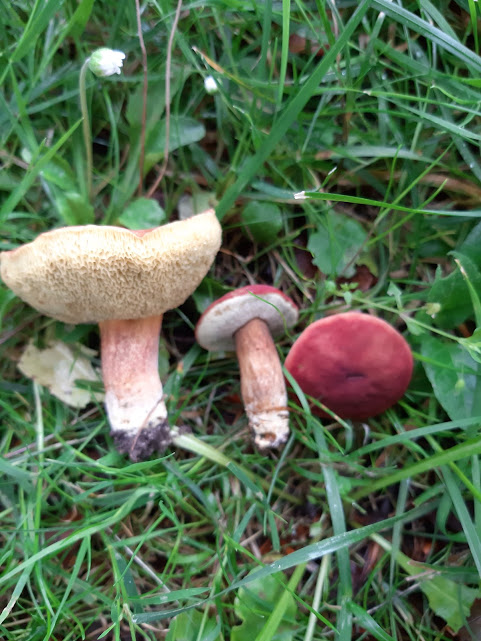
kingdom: Fungi
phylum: Basidiomycota
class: Agaricomycetes
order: Boletales
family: Boletaceae
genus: Hortiboletus
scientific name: Hortiboletus rubellus
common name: blodrød rørhat
